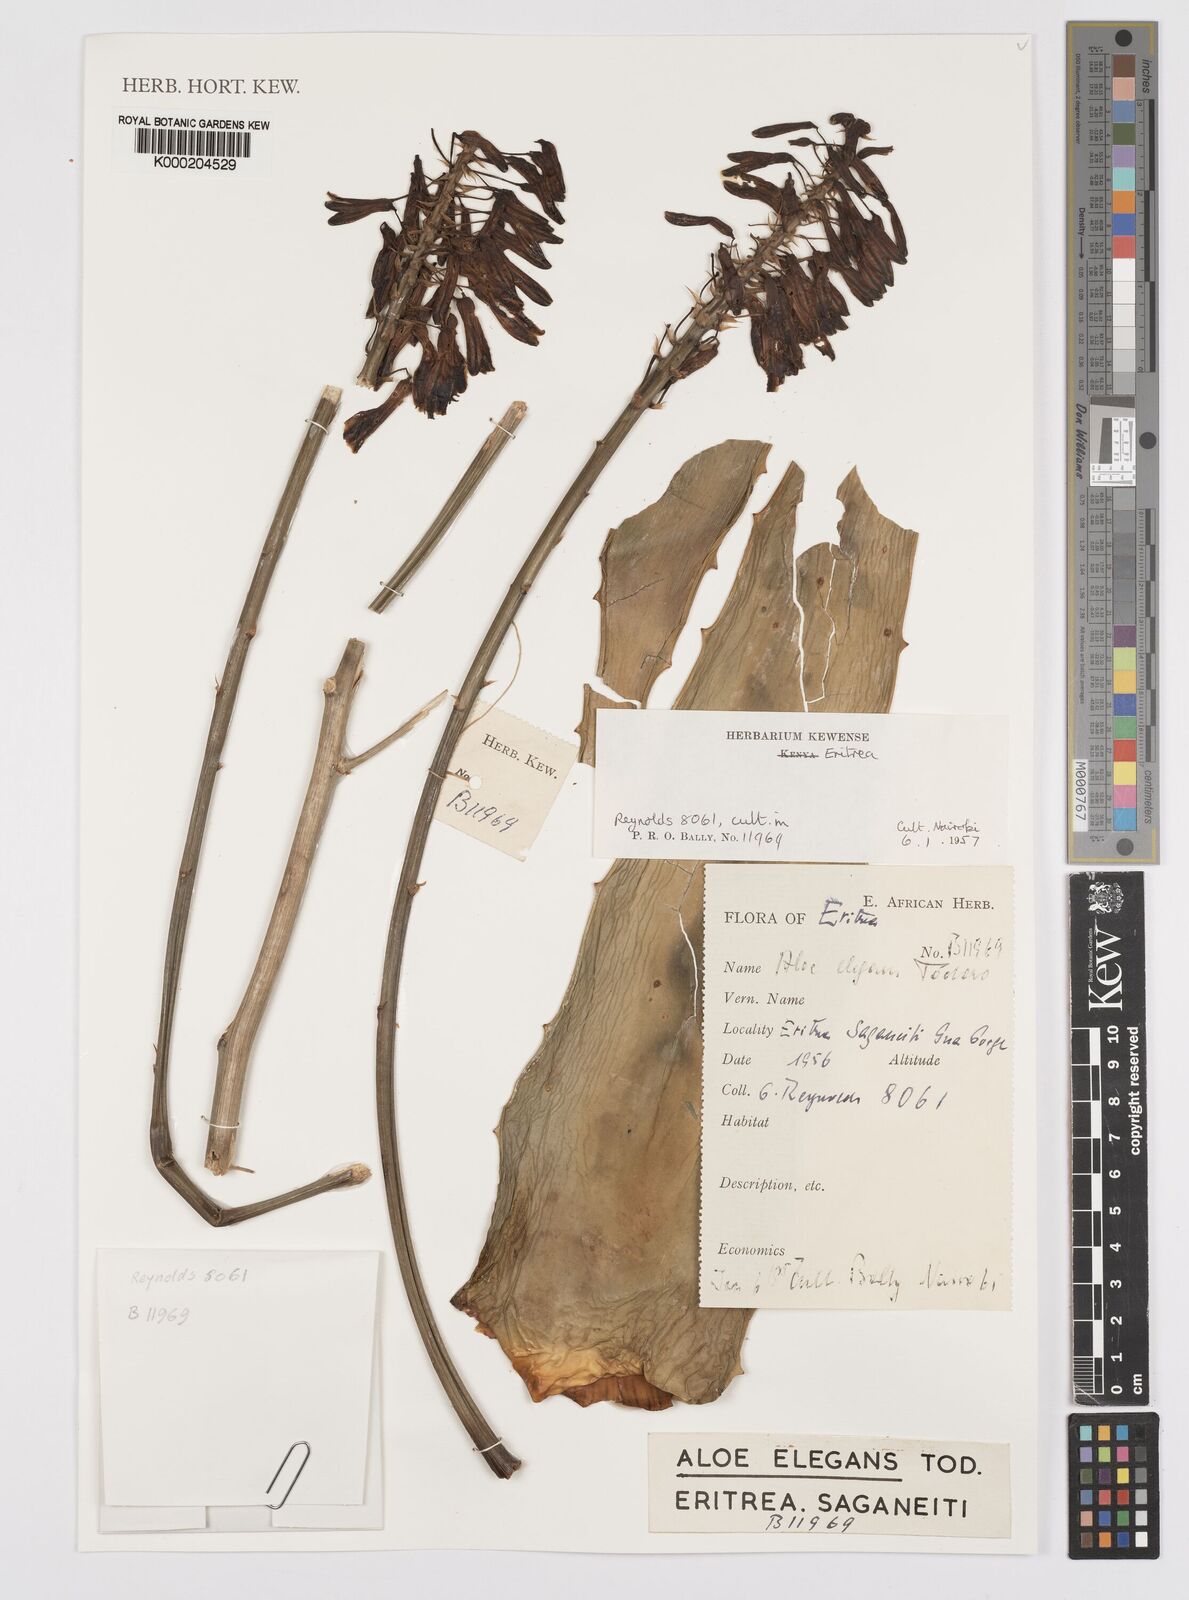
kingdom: Plantae
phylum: Tracheophyta
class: Liliopsida
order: Asparagales
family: Asphodelaceae
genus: Aloe
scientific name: Aloe elegans
